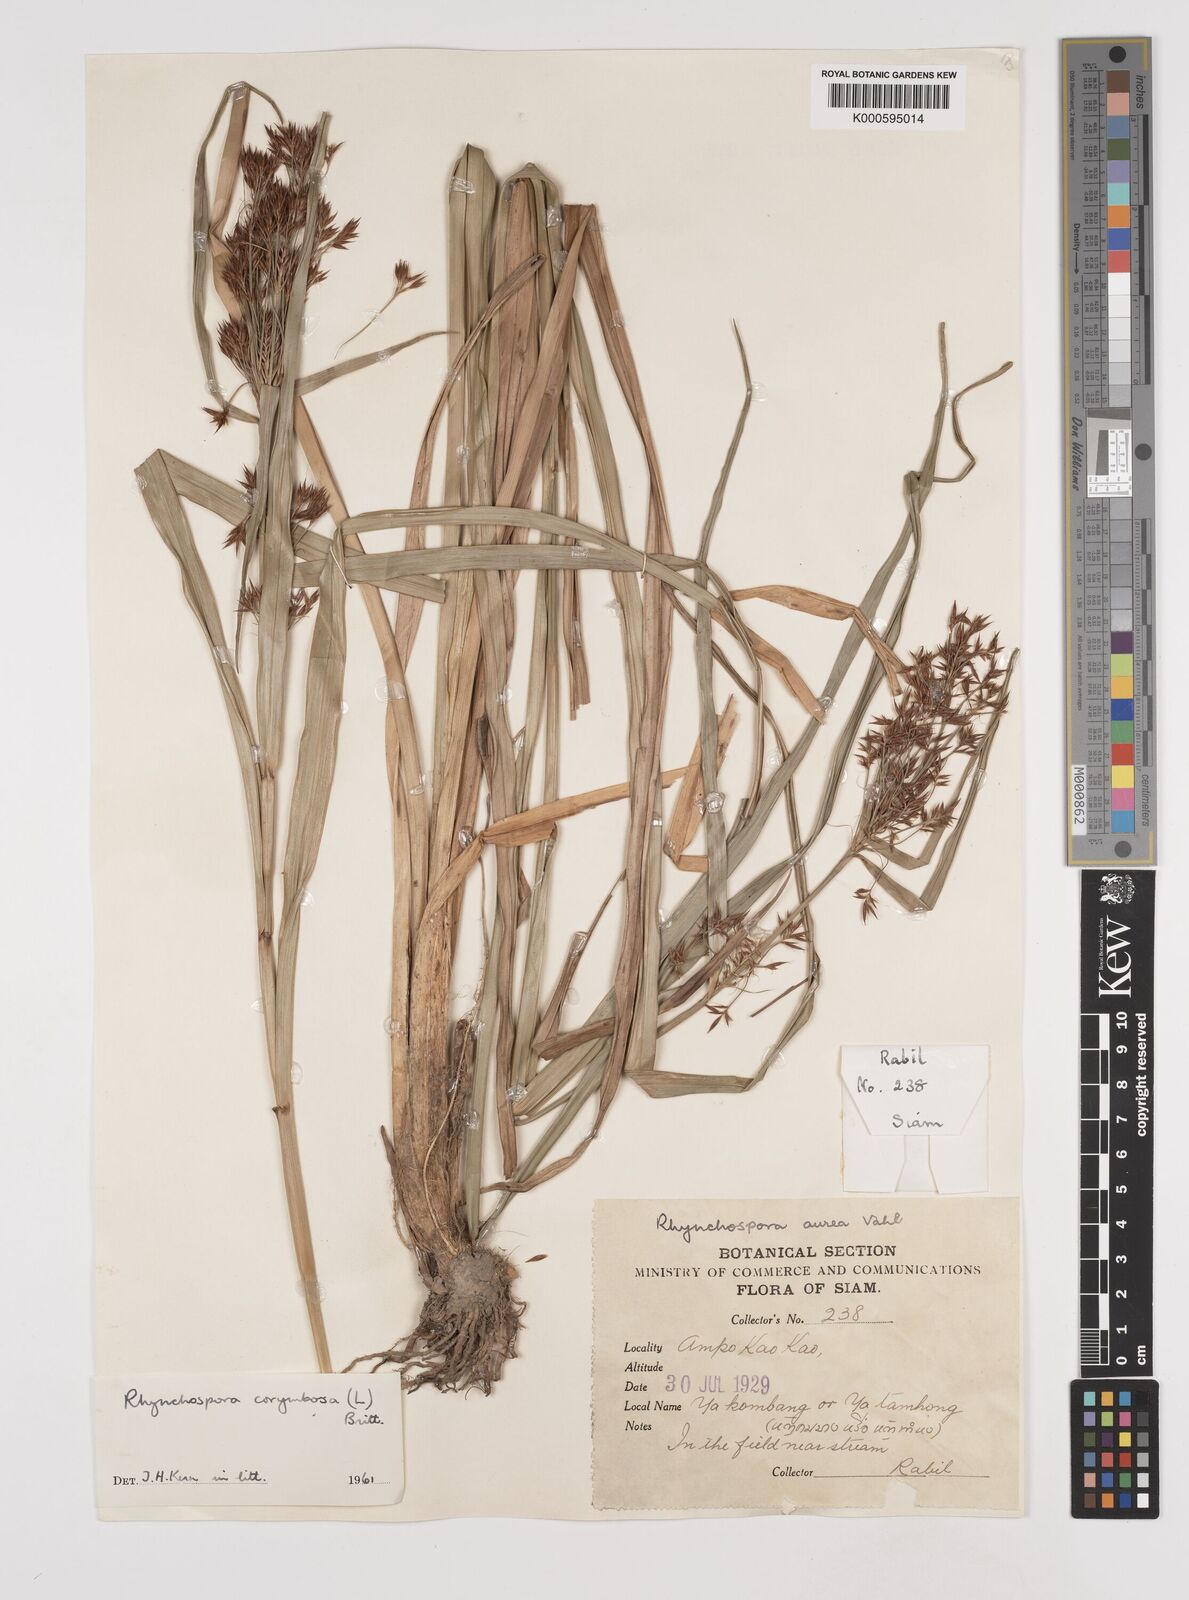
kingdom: Plantae
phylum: Tracheophyta
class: Liliopsida
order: Poales
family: Cyperaceae
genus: Rhynchospora
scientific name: Rhynchospora corymbosa
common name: Golden beak sedge
